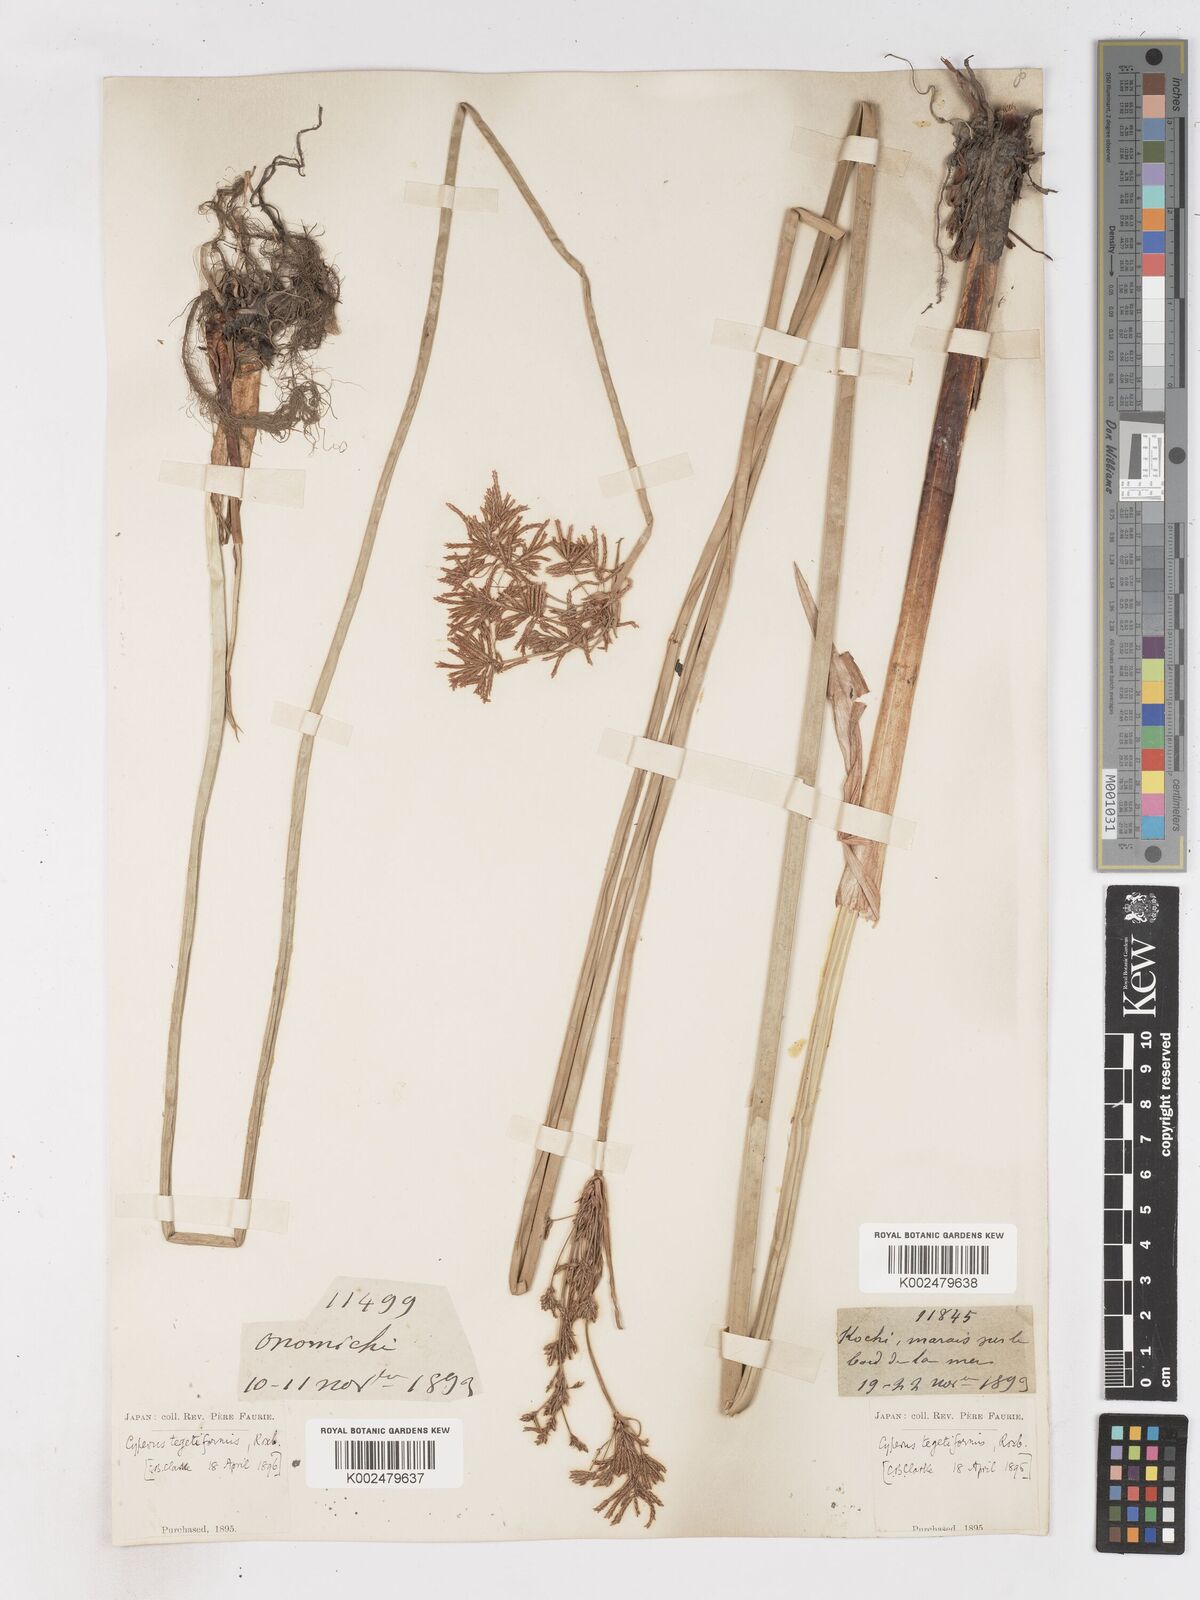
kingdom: Plantae
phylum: Tracheophyta
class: Liliopsida
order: Poales
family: Cyperaceae
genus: Cyperus
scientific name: Cyperus corymbosus
